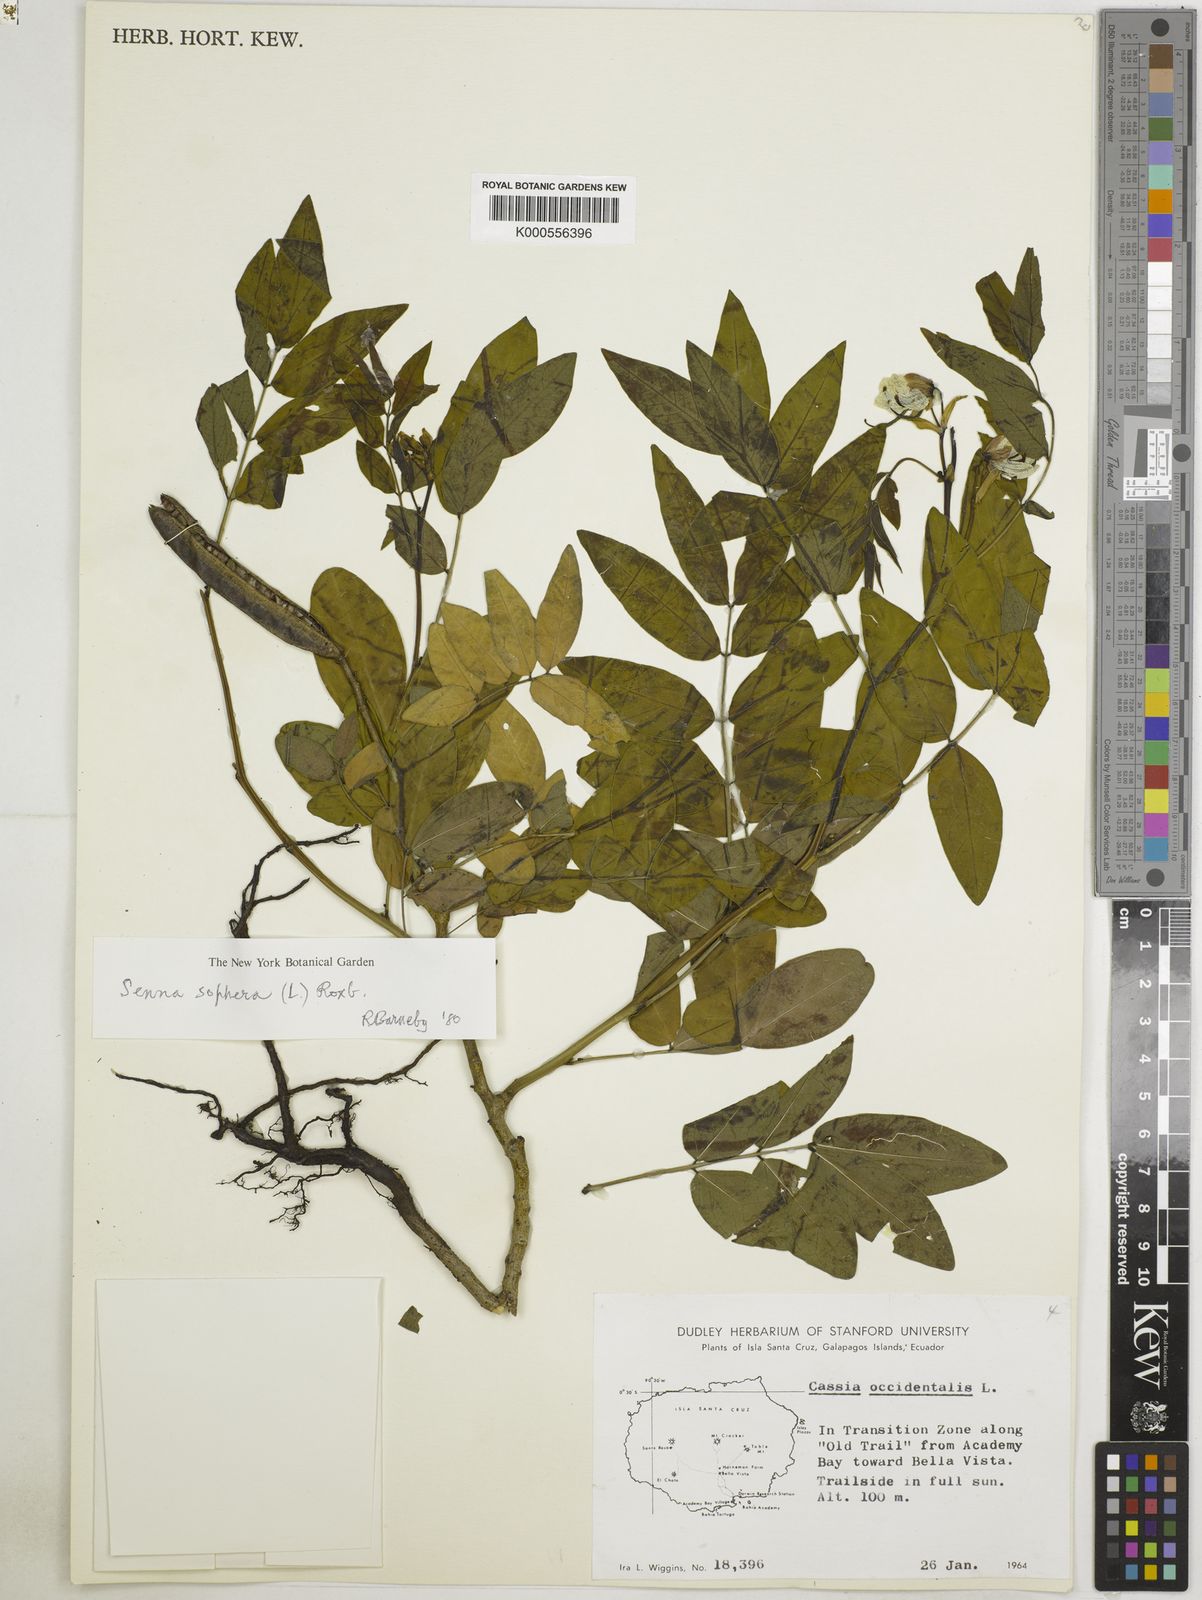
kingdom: Plantae
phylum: Tracheophyta
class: Magnoliopsida
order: Fabales
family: Fabaceae
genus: Senna
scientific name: Senna sophera
